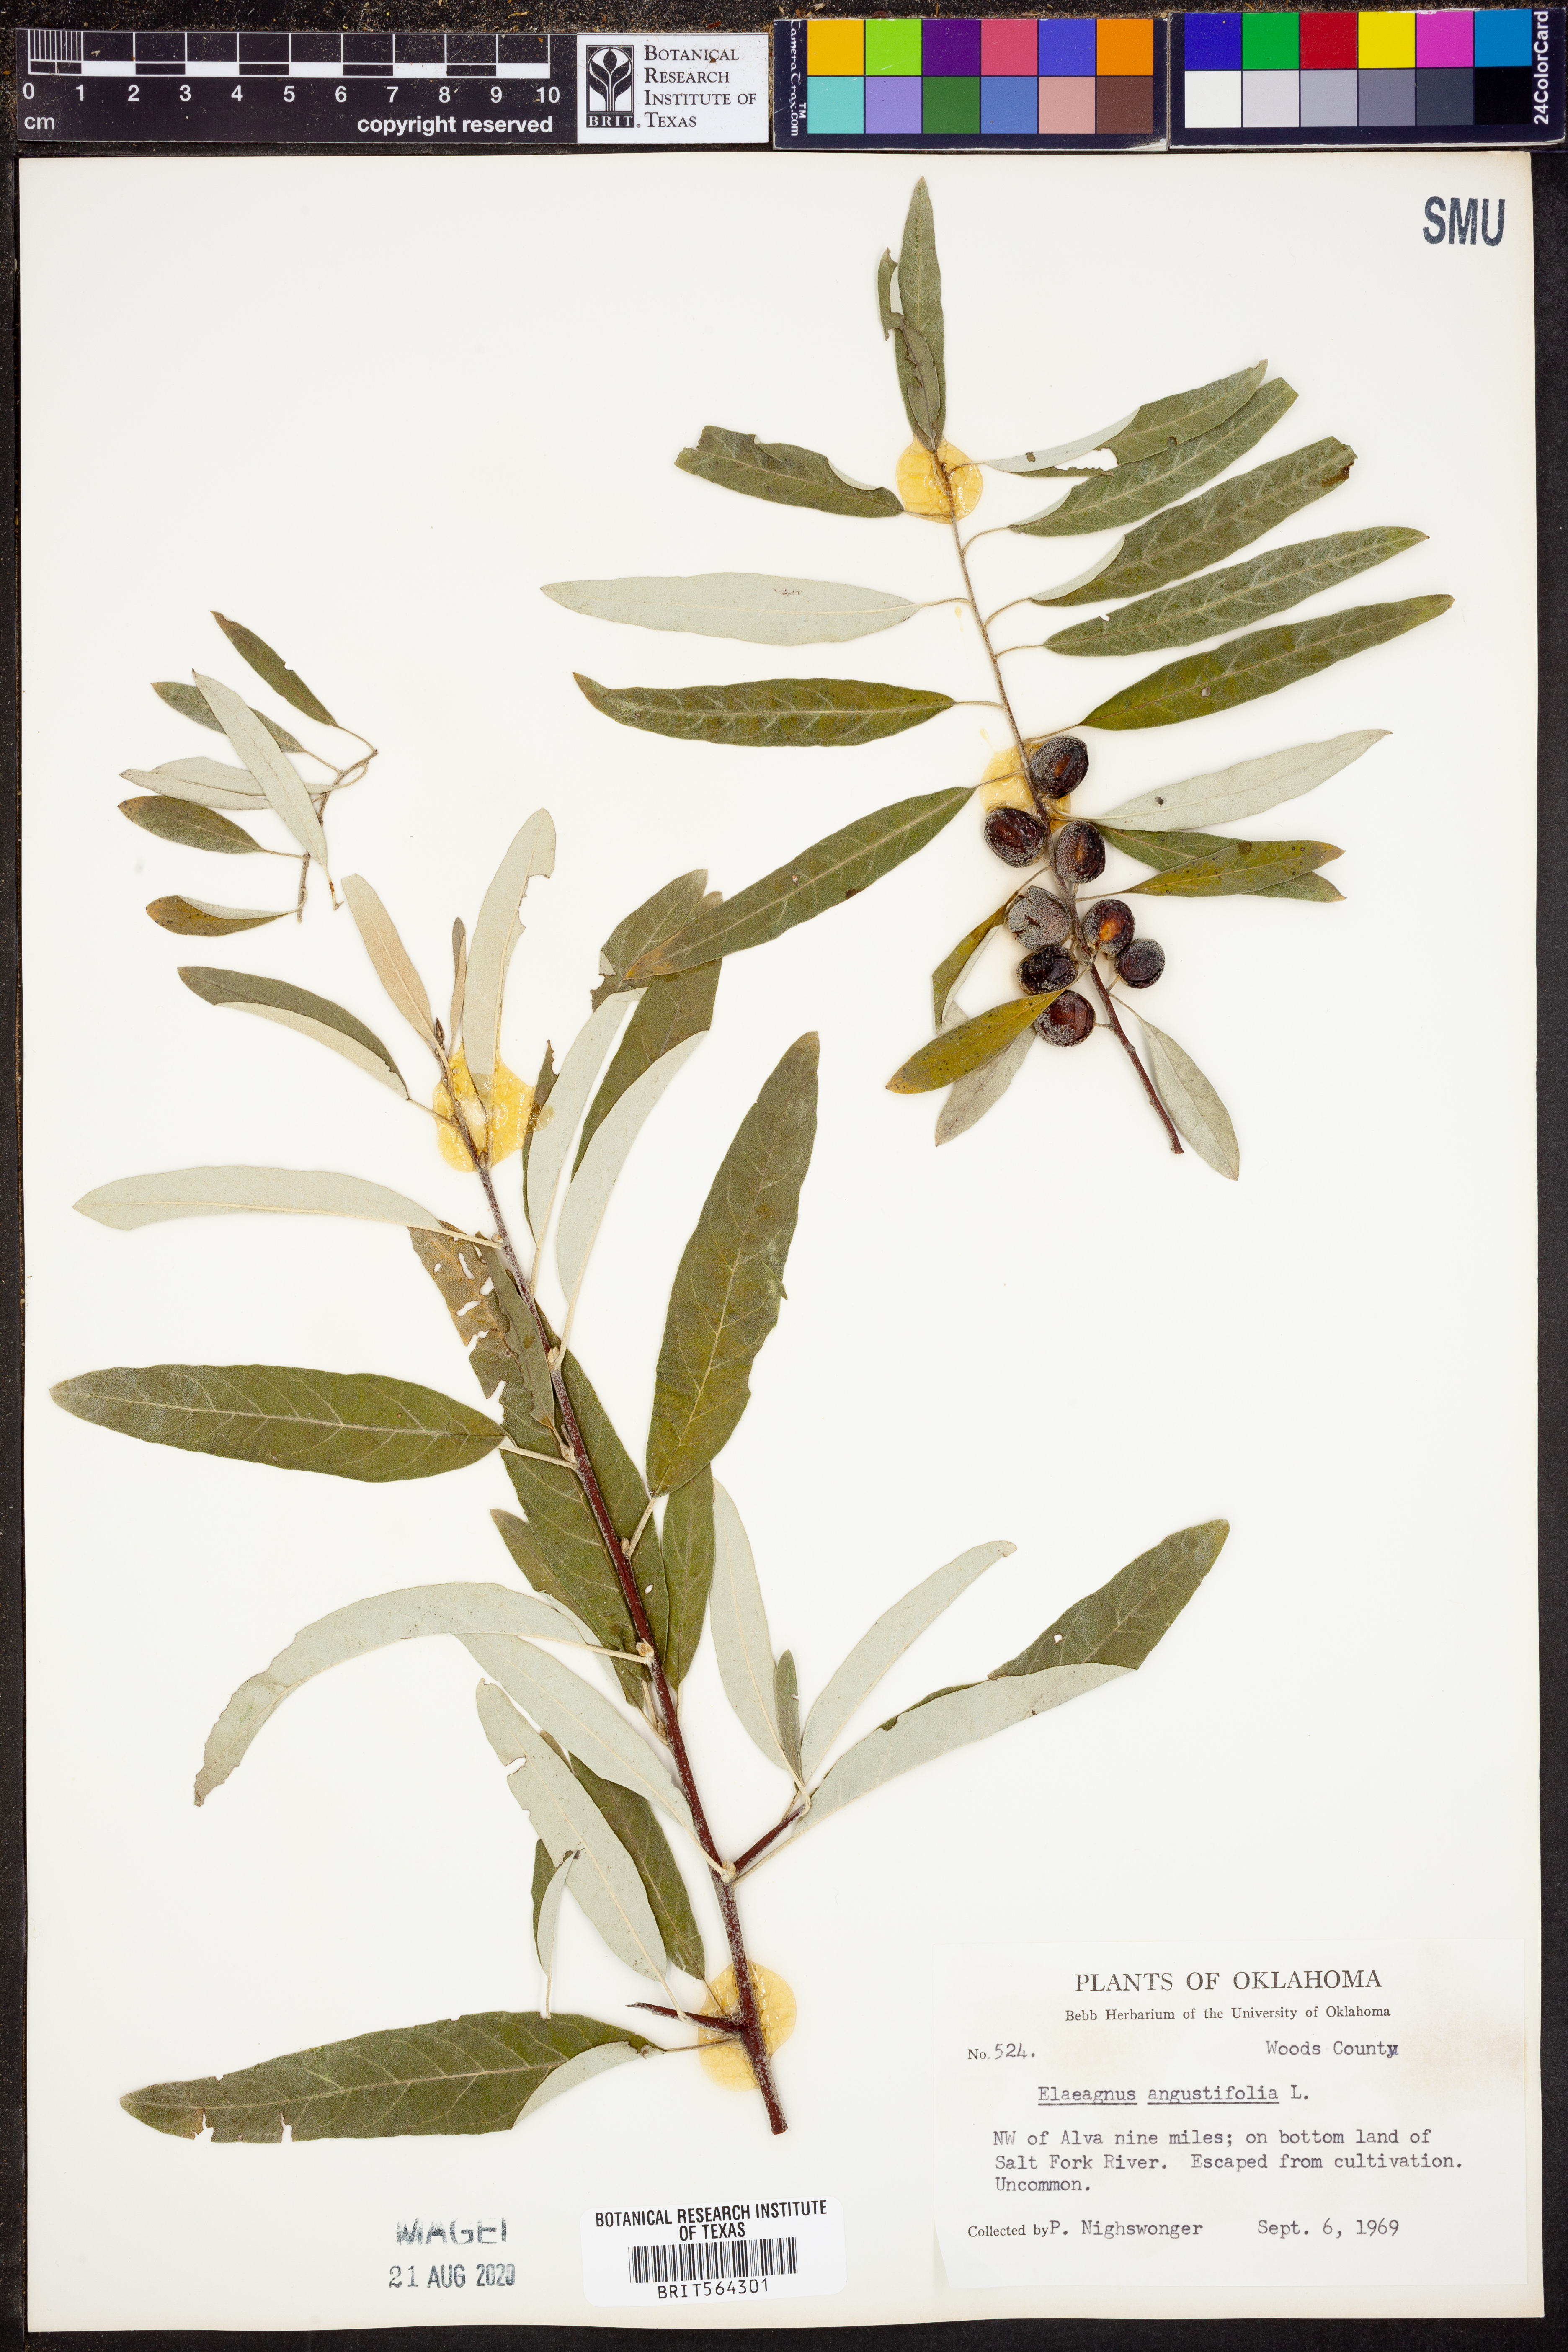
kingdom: Plantae
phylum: Tracheophyta
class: Magnoliopsida
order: Rosales
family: Elaeagnaceae
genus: Elaeagnus
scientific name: Elaeagnus angustifolia
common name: Russian olive
